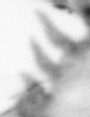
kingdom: Animalia
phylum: Chaetognatha
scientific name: Chaetognatha
